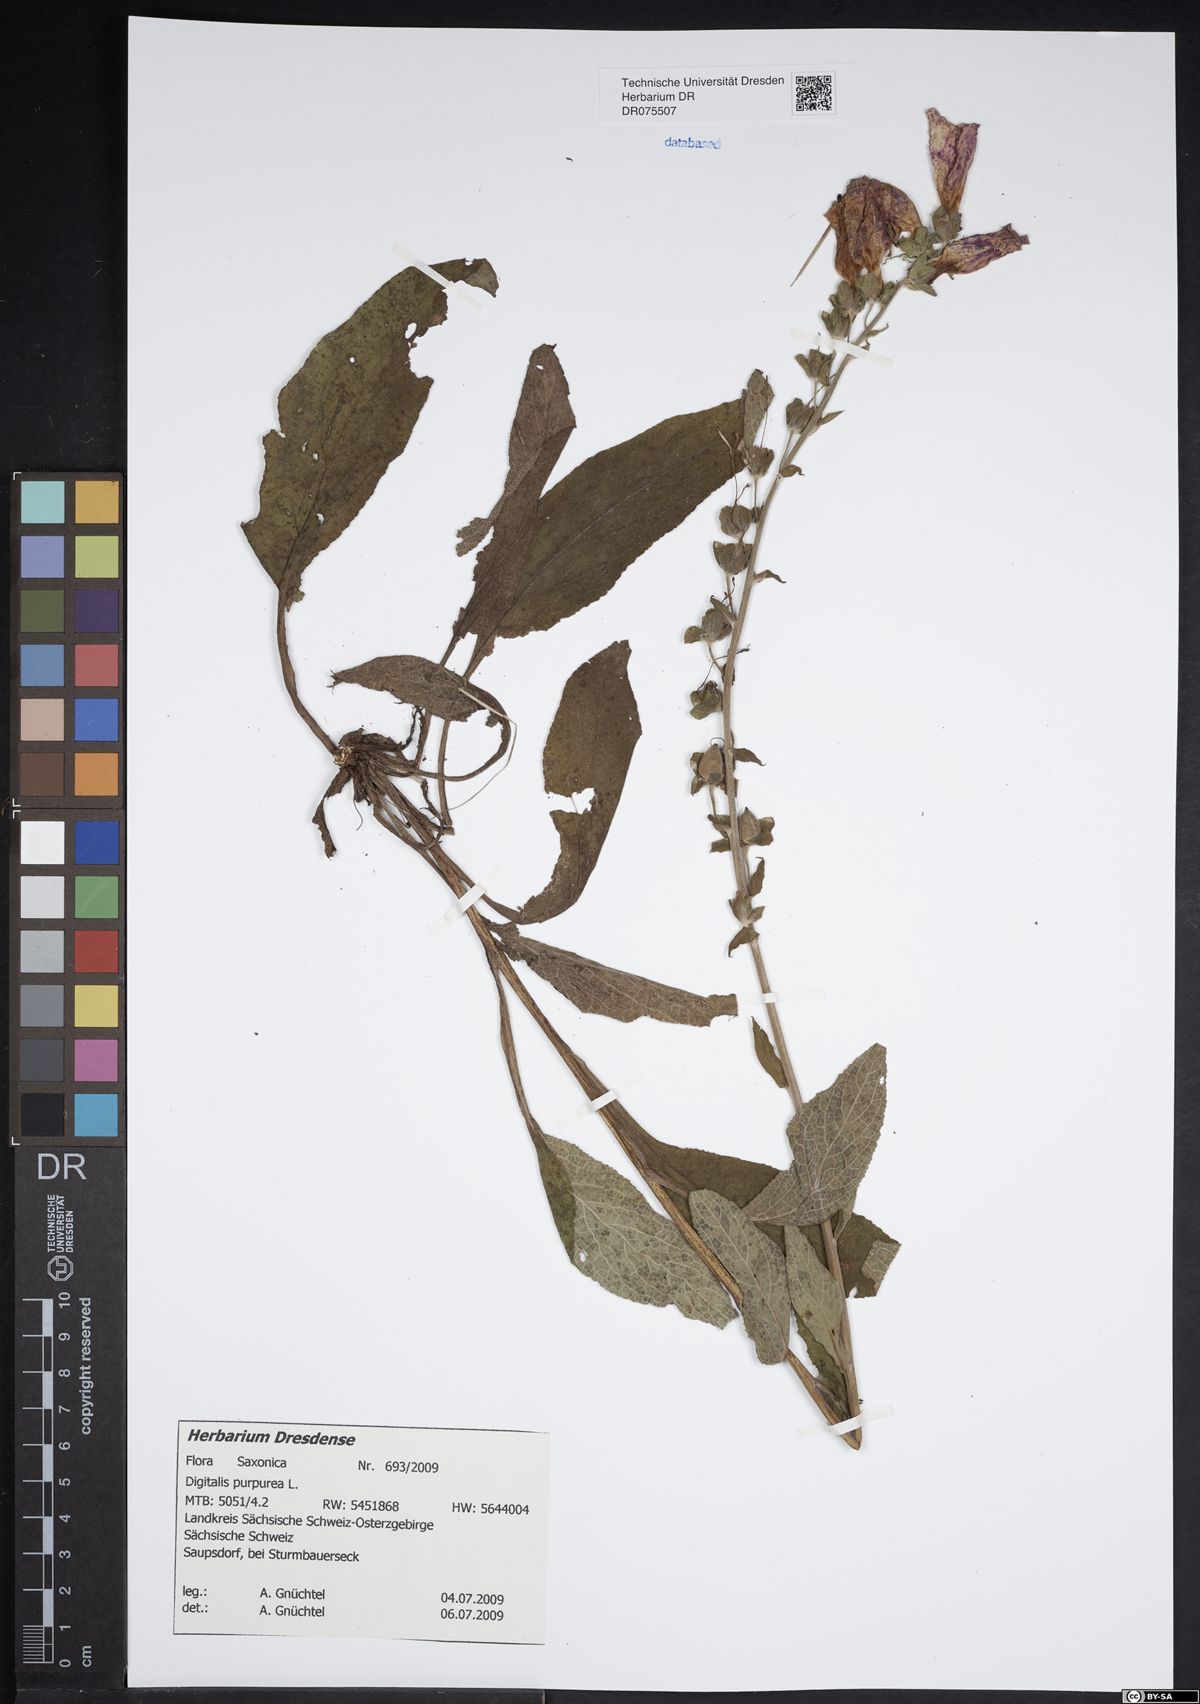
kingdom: Plantae
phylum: Tracheophyta
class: Magnoliopsida
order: Lamiales
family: Plantaginaceae
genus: Digitalis
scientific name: Digitalis purpurea
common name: Foxglove
